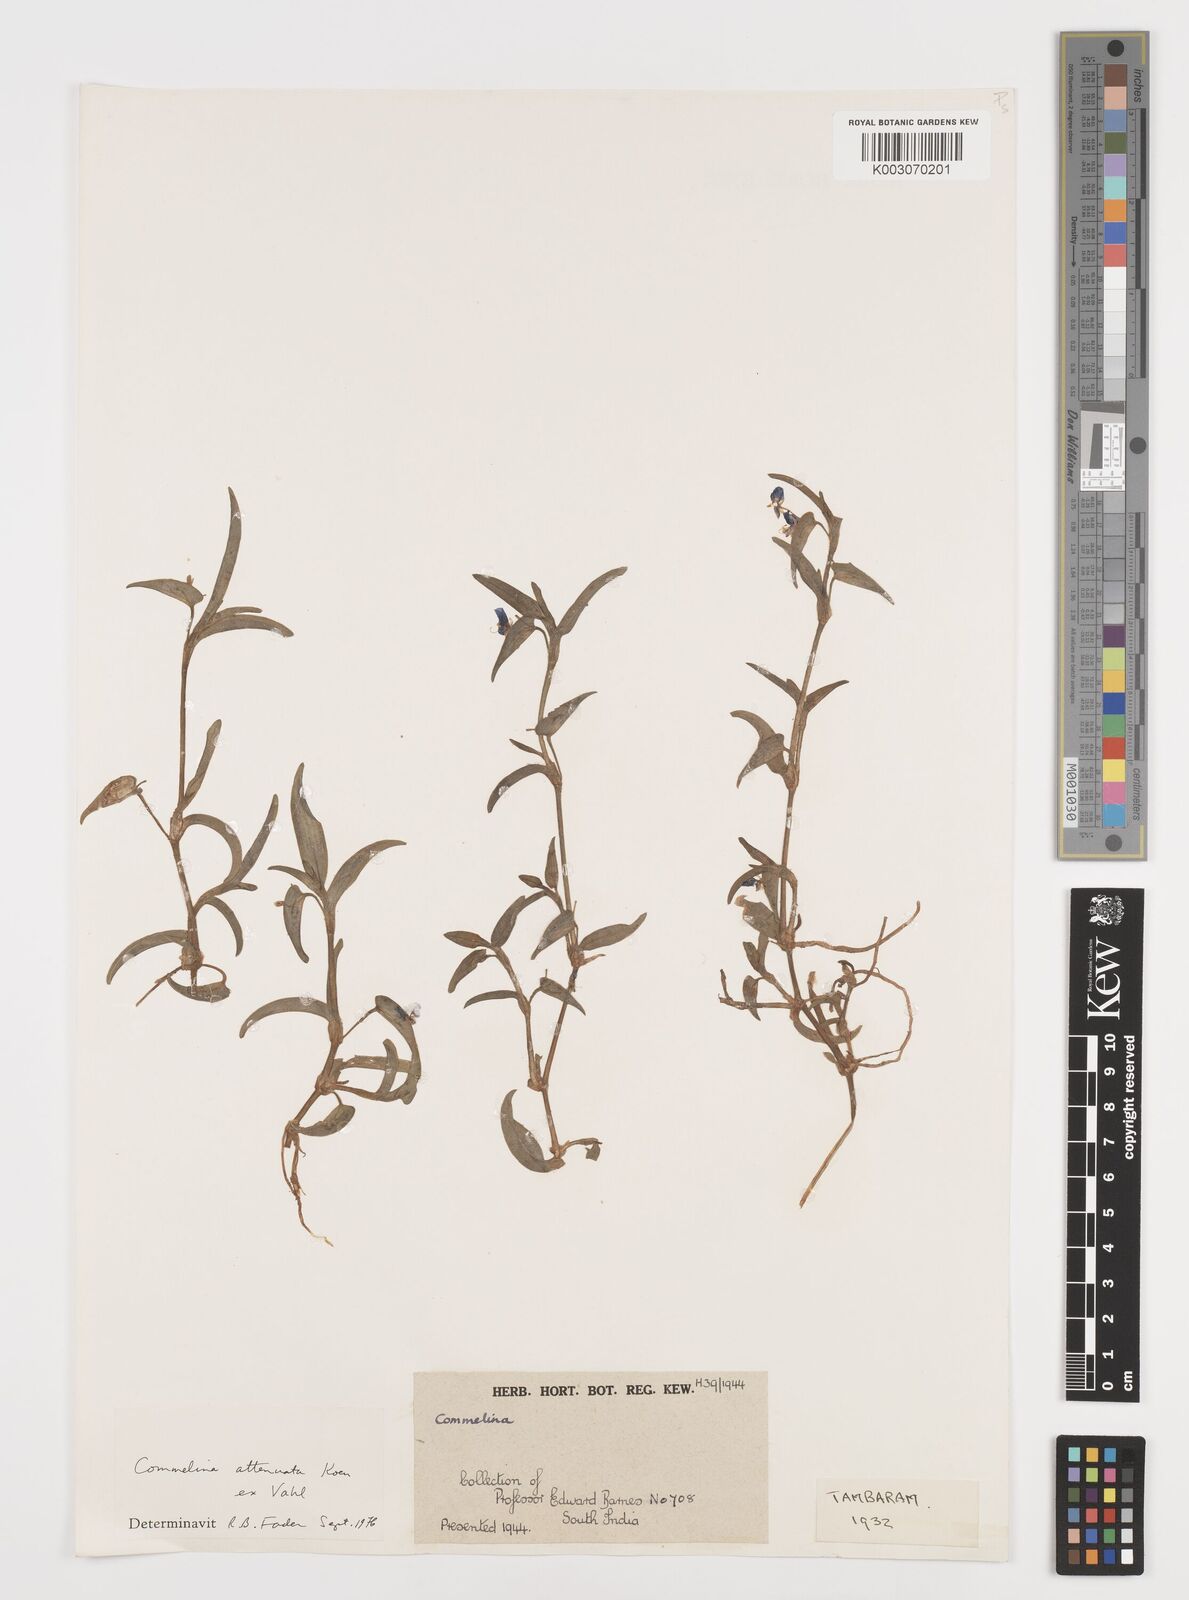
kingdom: Plantae
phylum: Tracheophyta
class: Liliopsida
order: Commelinales
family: Commelinaceae
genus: Commelina
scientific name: Commelina attenuata
